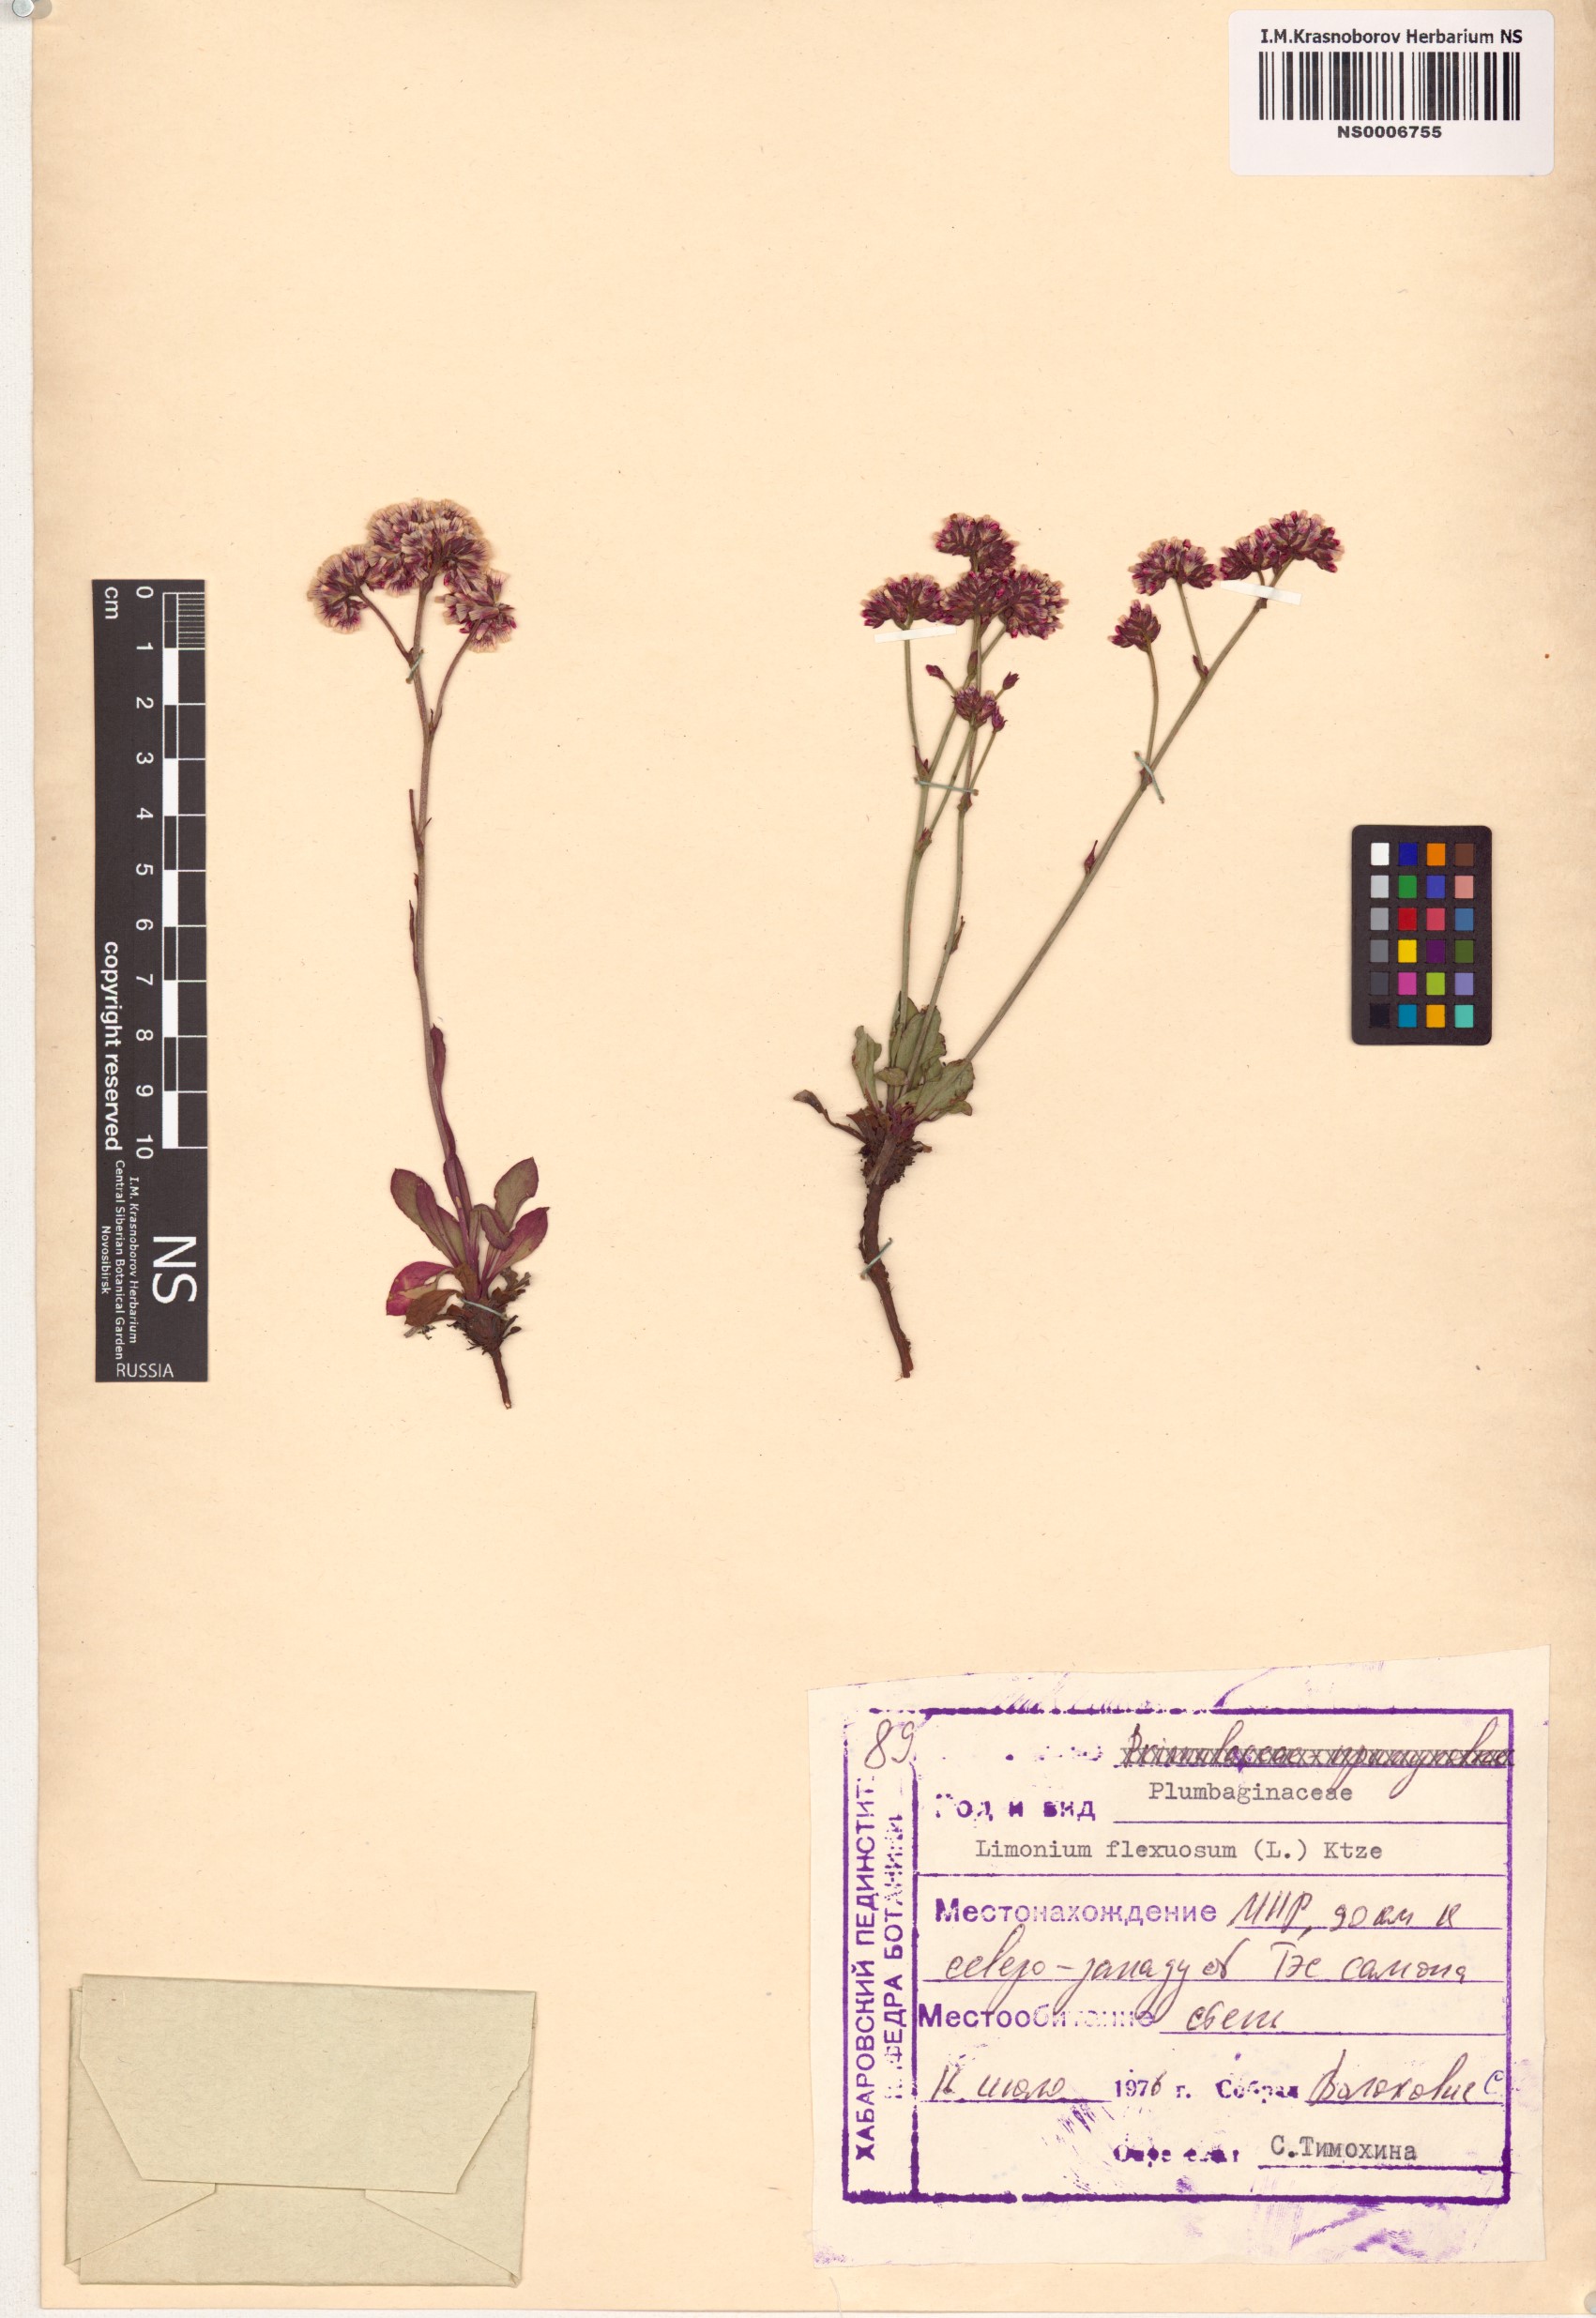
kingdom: Plantae
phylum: Tracheophyta
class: Magnoliopsida
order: Caryophyllales
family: Plumbaginaceae
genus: Limonium
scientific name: Limonium flexuosum
